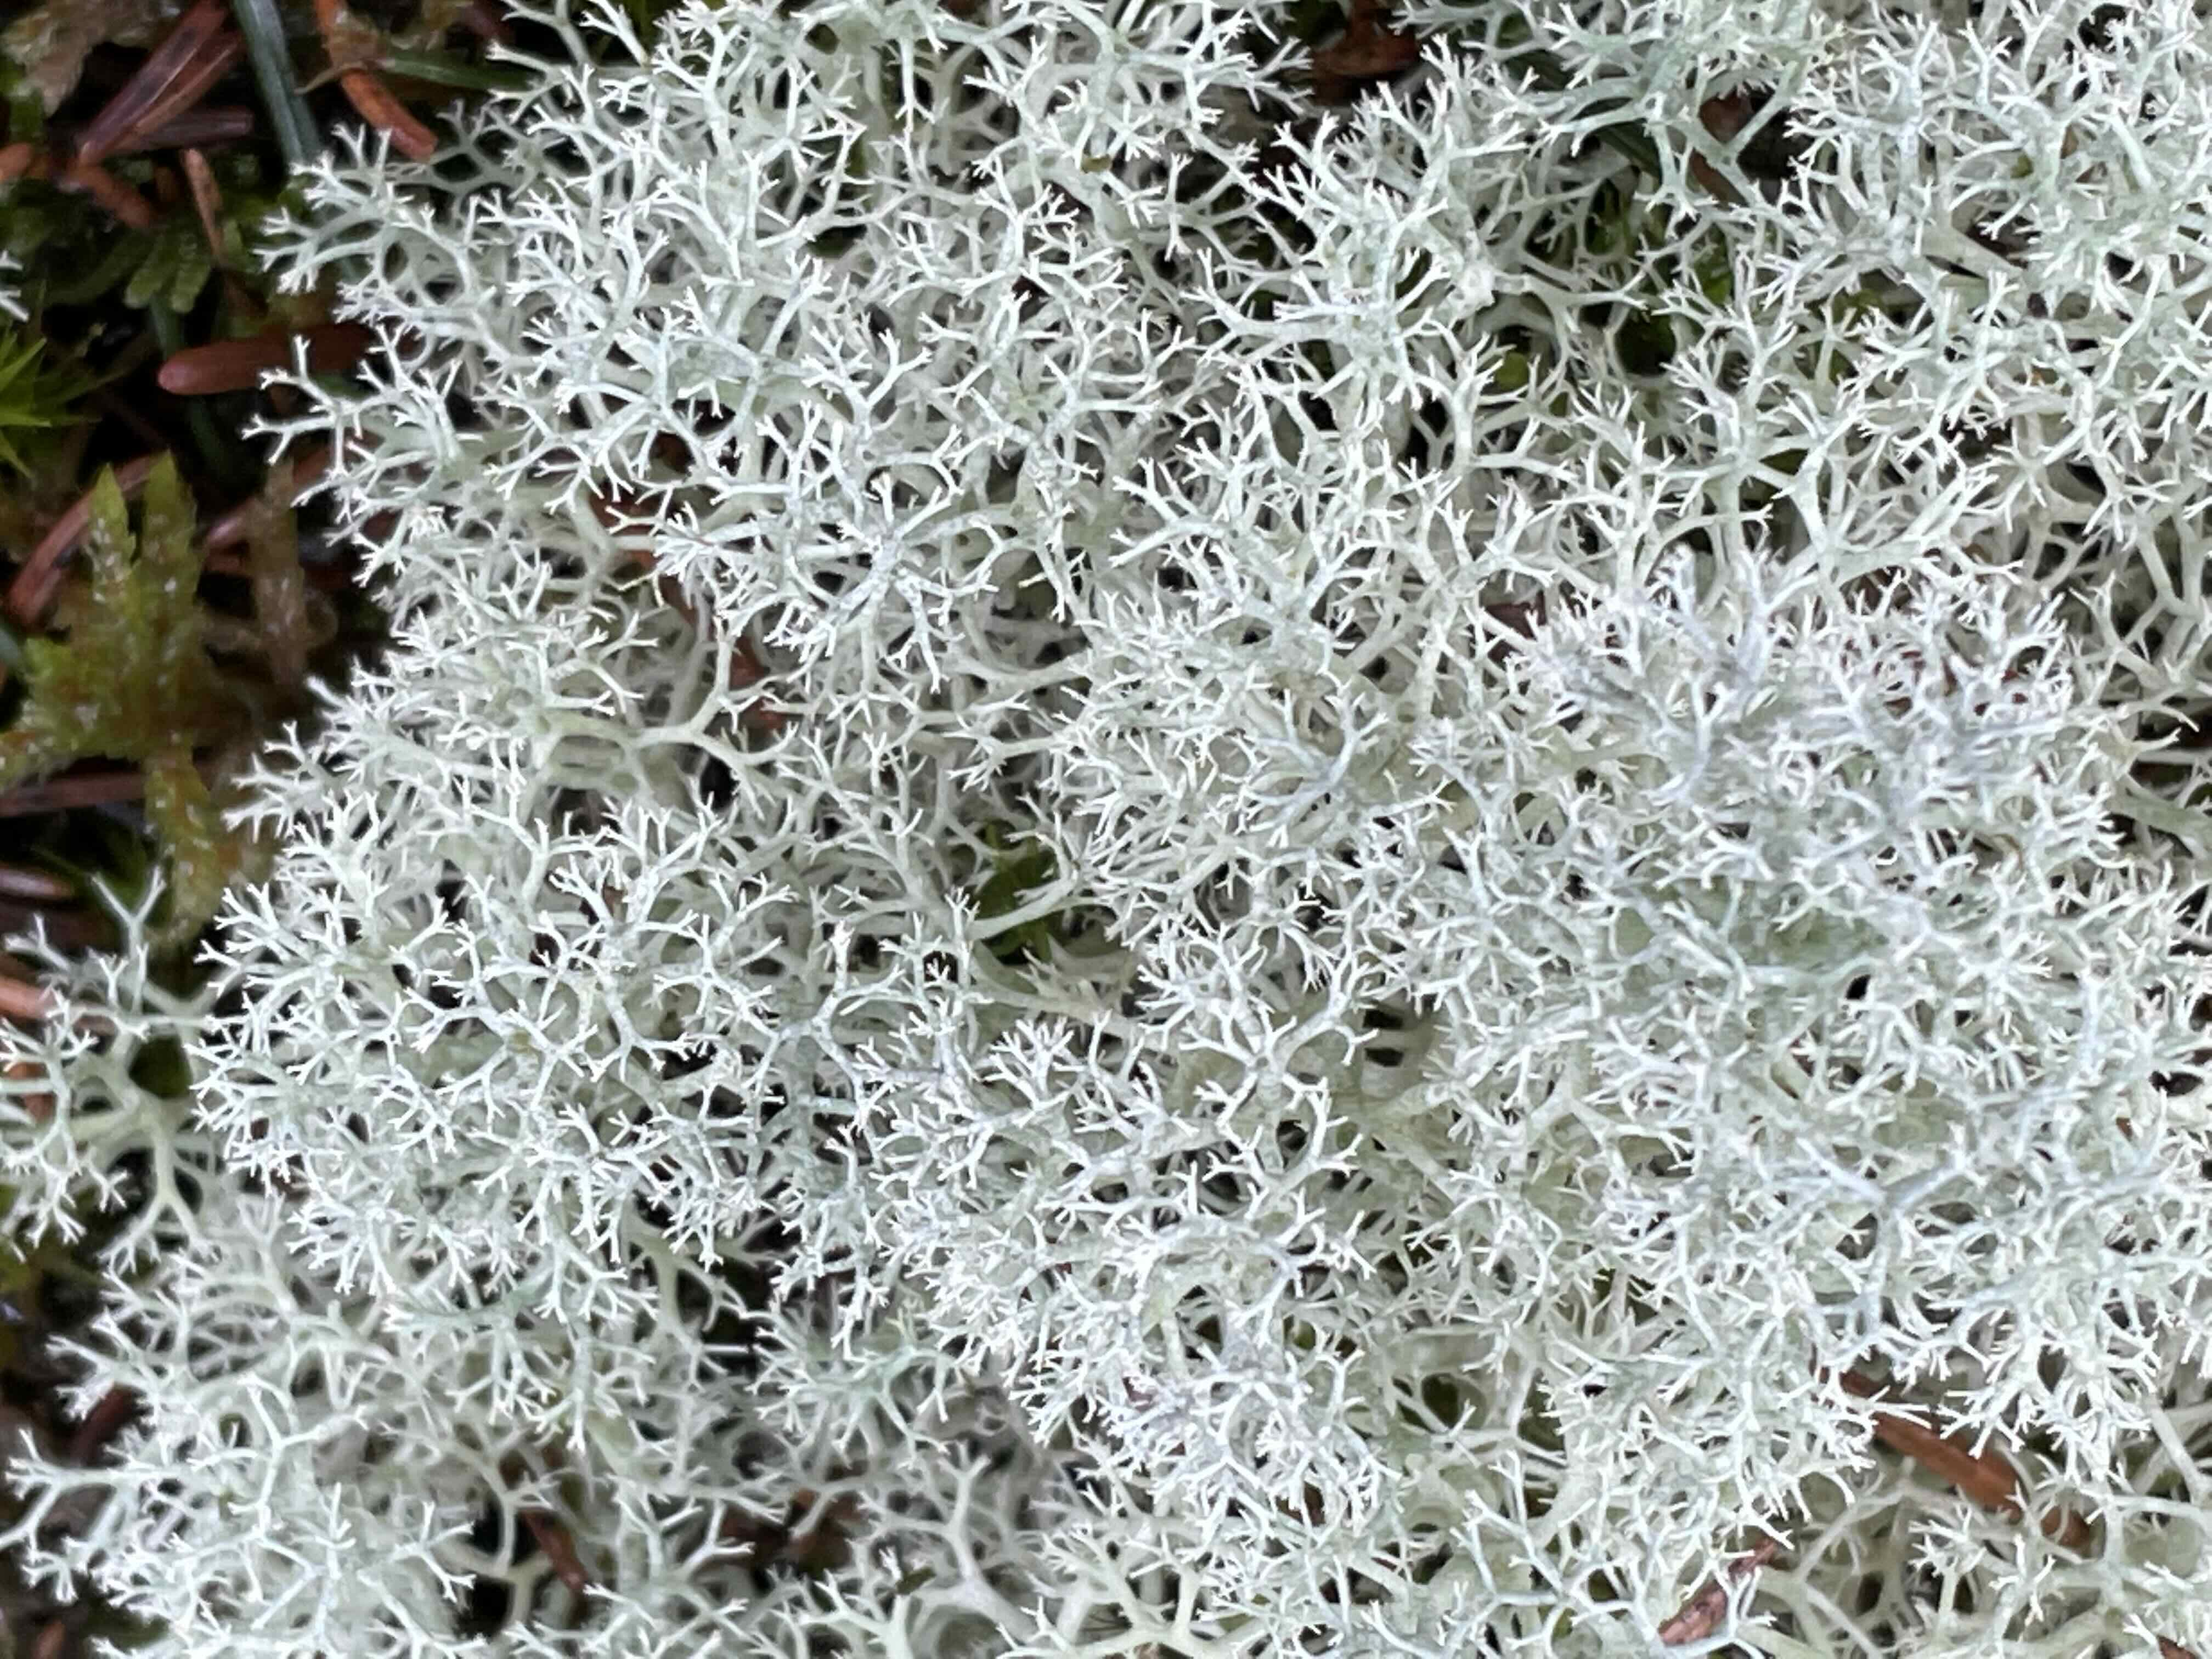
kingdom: Fungi
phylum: Ascomycota
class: Lecanoromycetes
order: Lecanorales
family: Cladoniaceae
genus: Cladonia
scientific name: Cladonia portentosa
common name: hede-rensdyrlav
